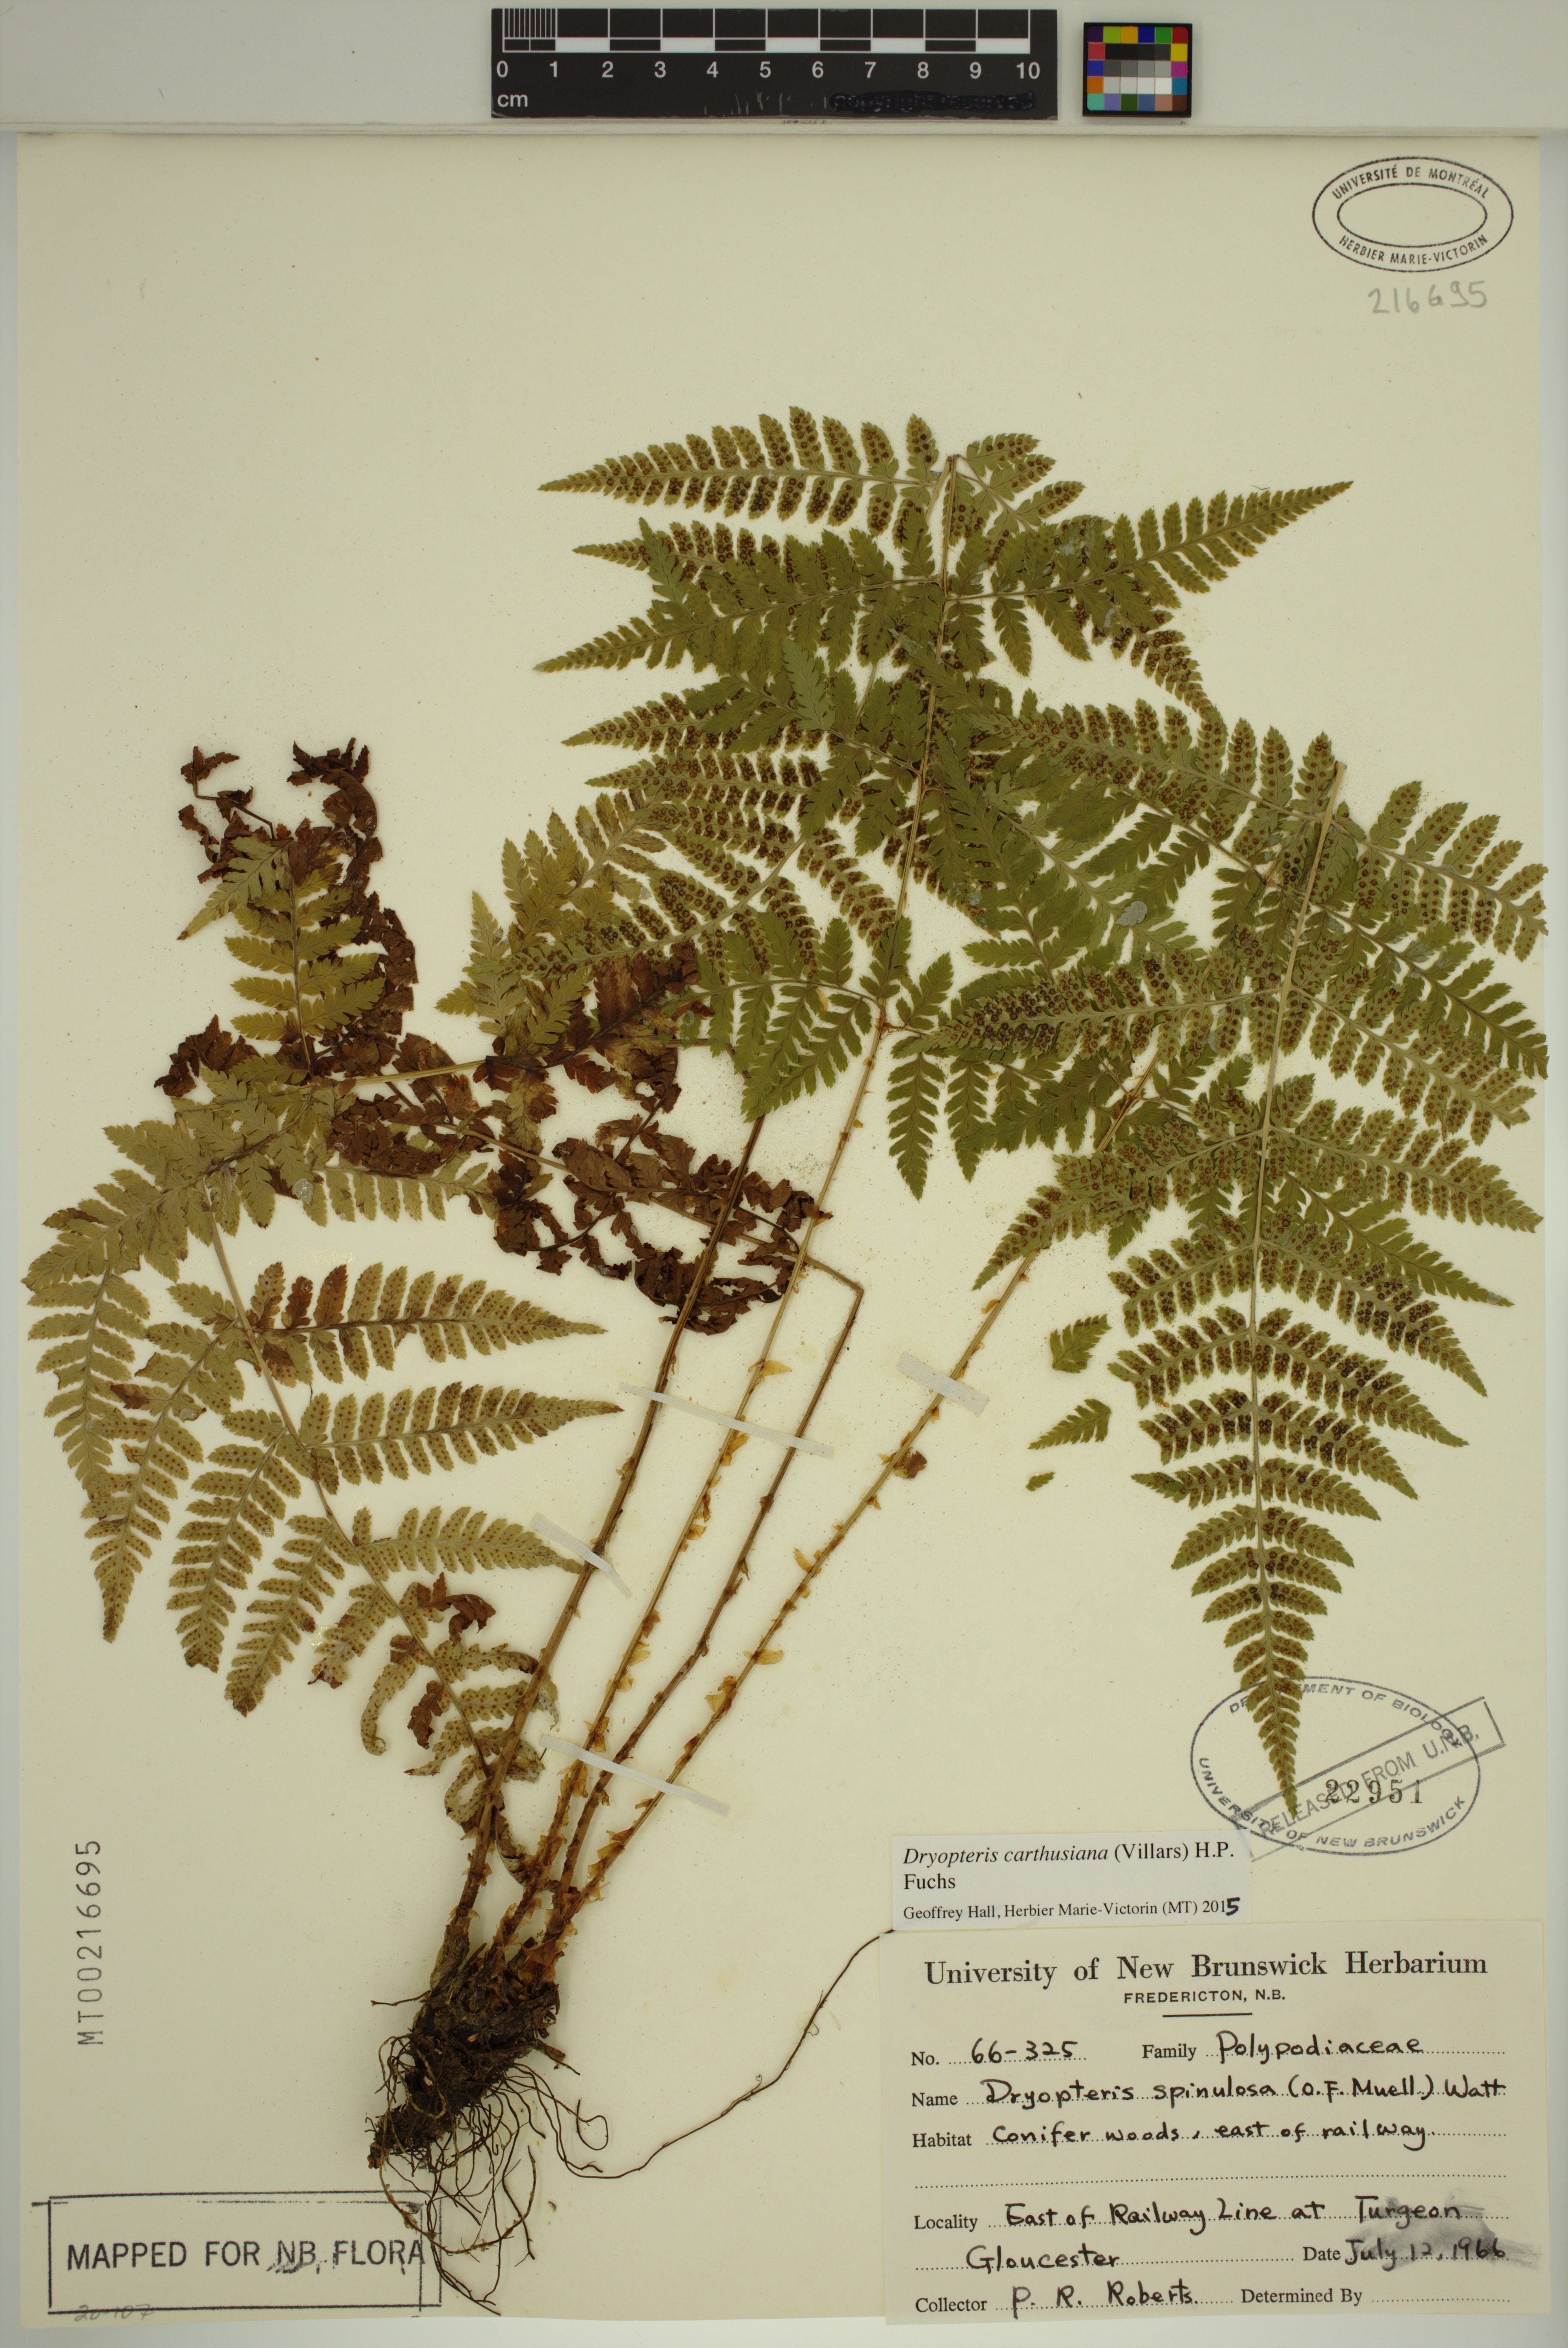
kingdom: Plantae
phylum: Tracheophyta
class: Polypodiopsida
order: Polypodiales
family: Dryopteridaceae
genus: Dryopteris
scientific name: Dryopteris carthusiana
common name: Narrow buckler-fern
